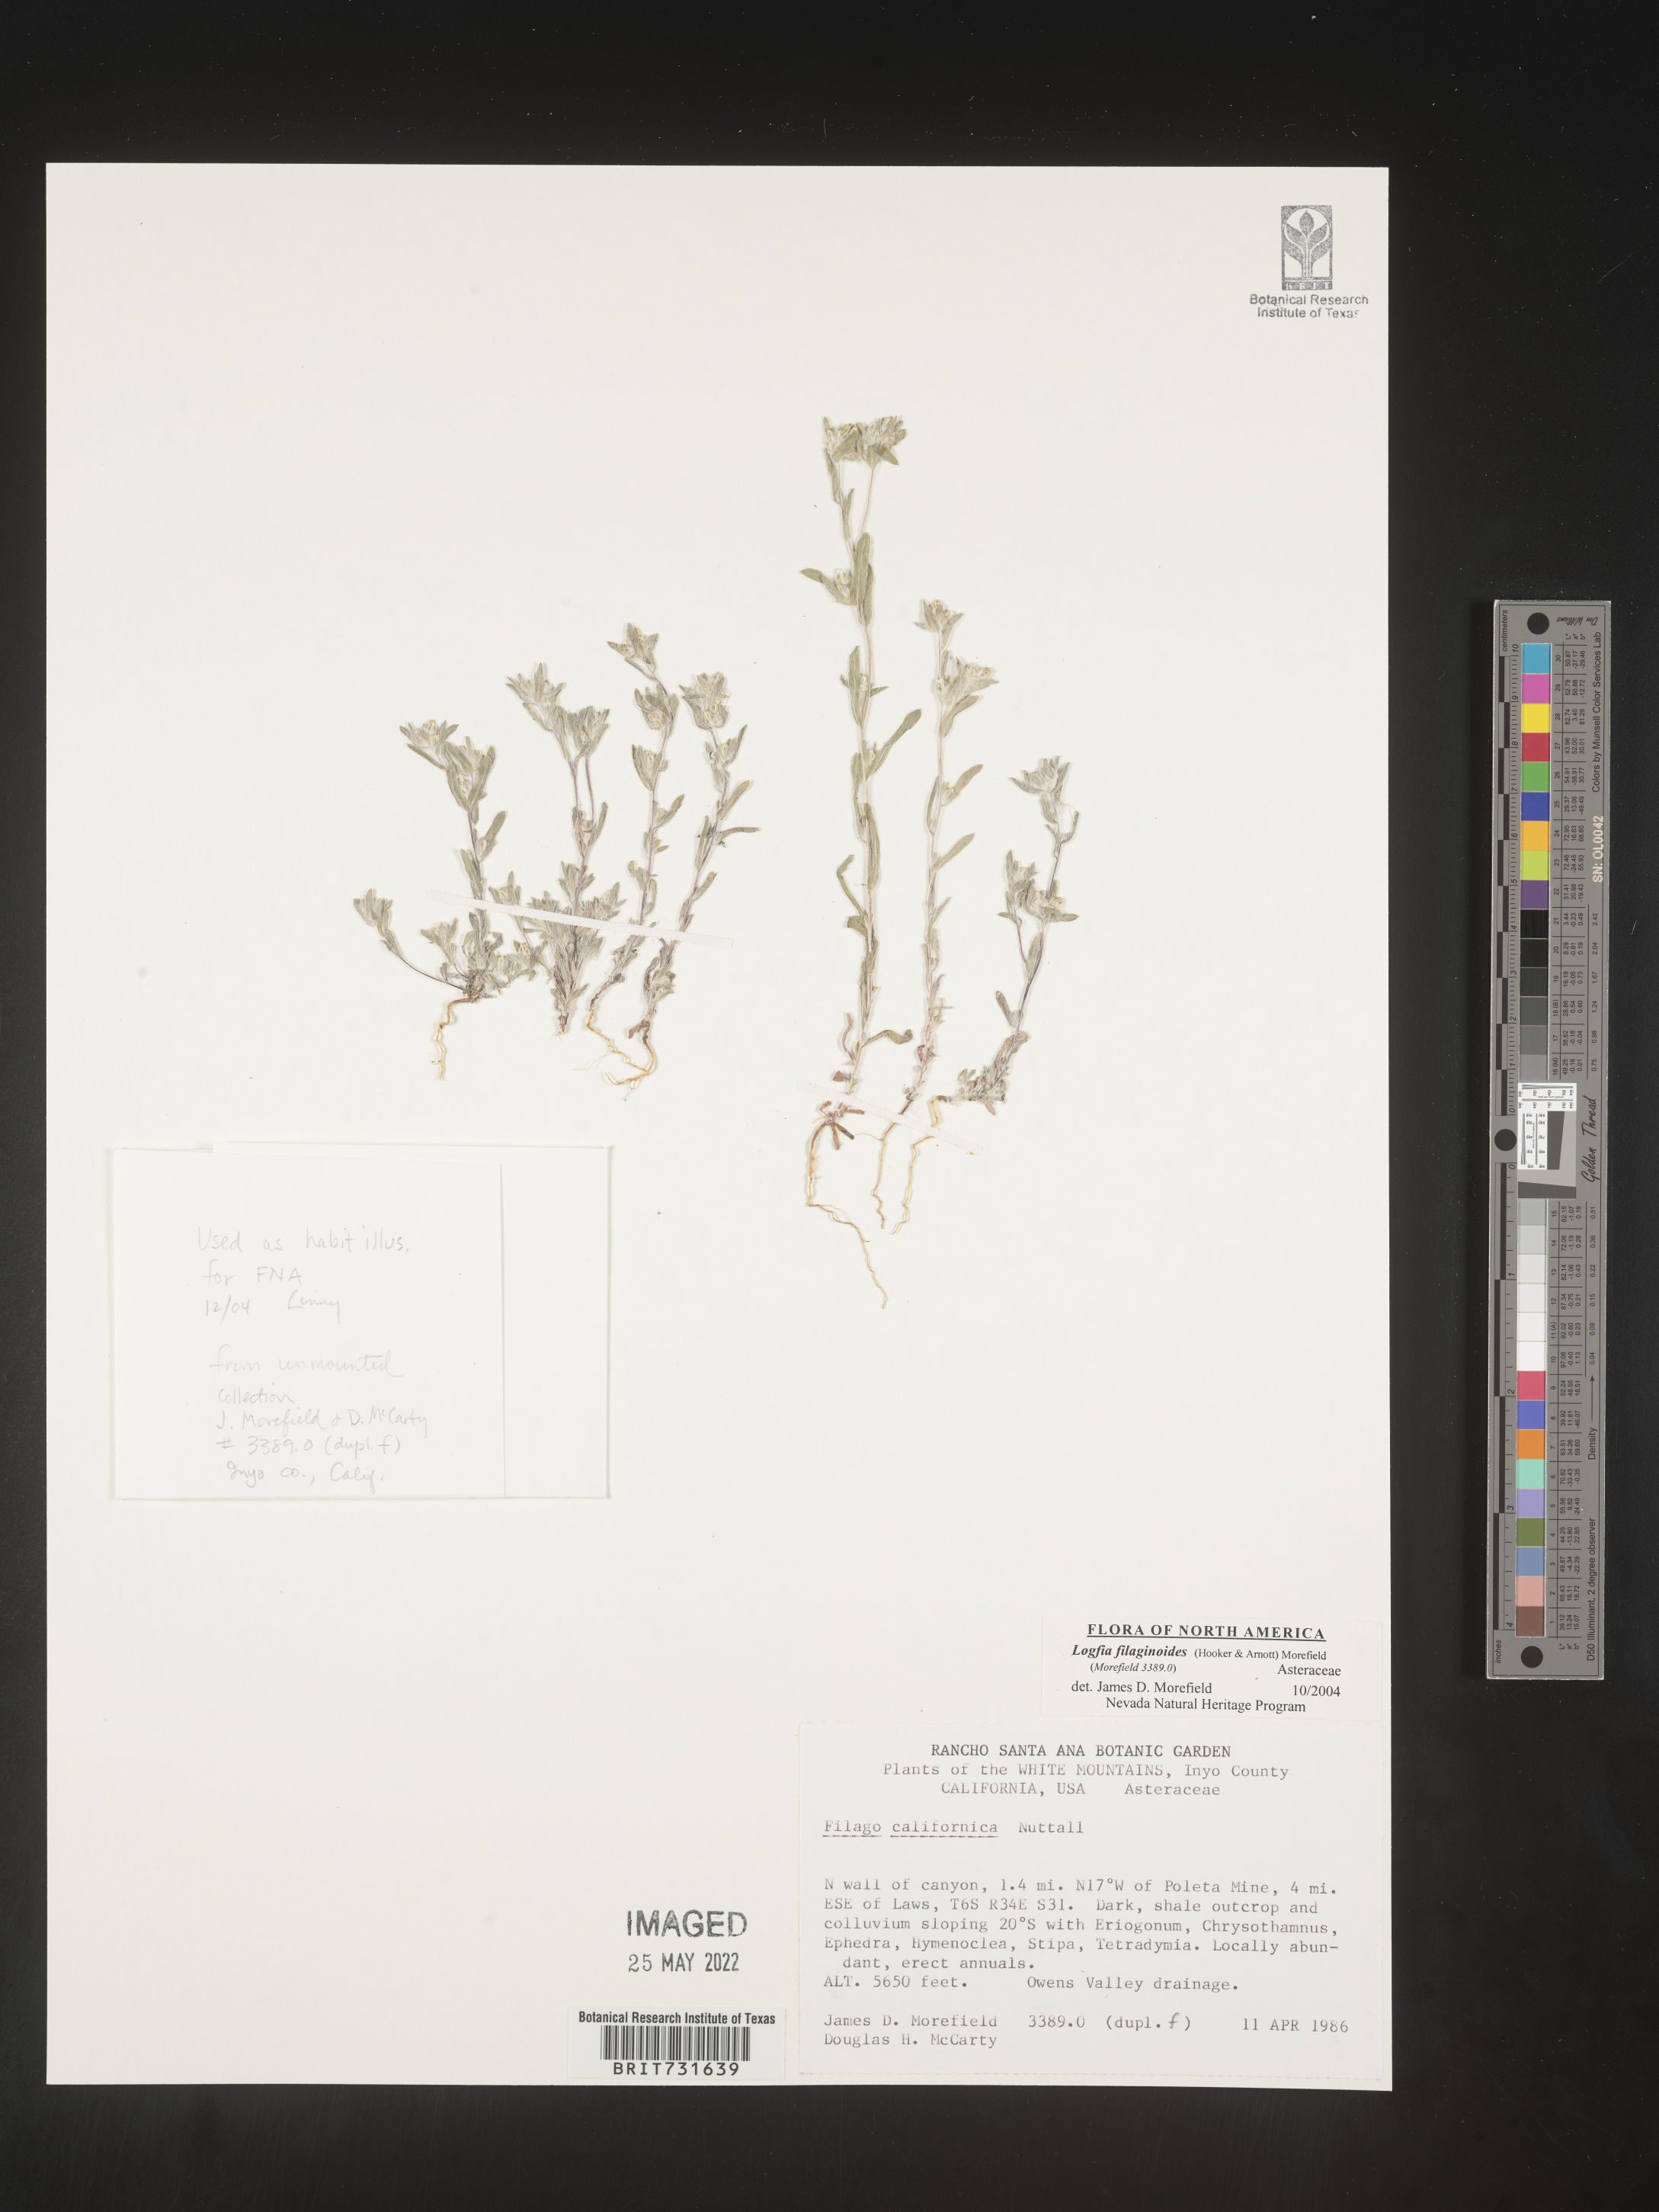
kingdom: Plantae
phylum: Tracheophyta
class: Magnoliopsida
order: Asterales
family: Asteraceae
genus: Logfia
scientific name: Logfia
